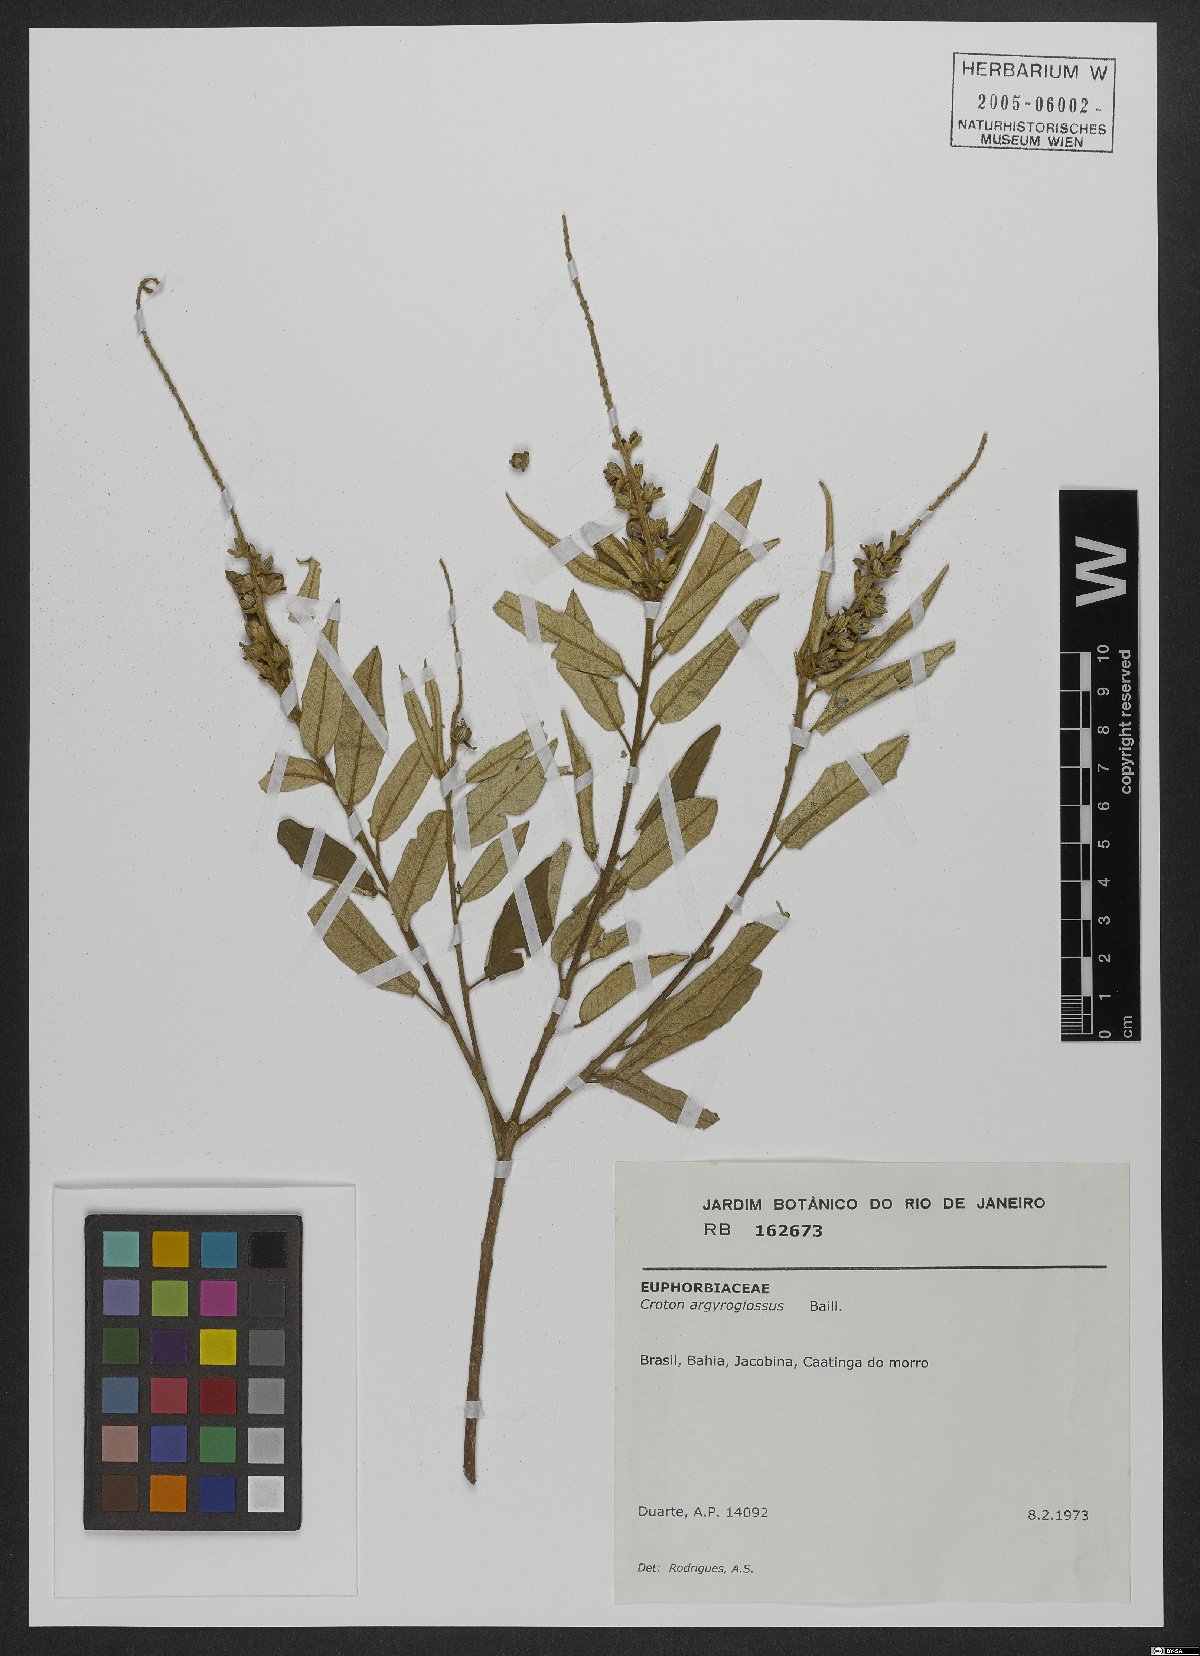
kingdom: Plantae
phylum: Tracheophyta
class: Magnoliopsida
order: Malpighiales
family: Euphorbiaceae
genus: Croton
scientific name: Croton argyrophyllus
